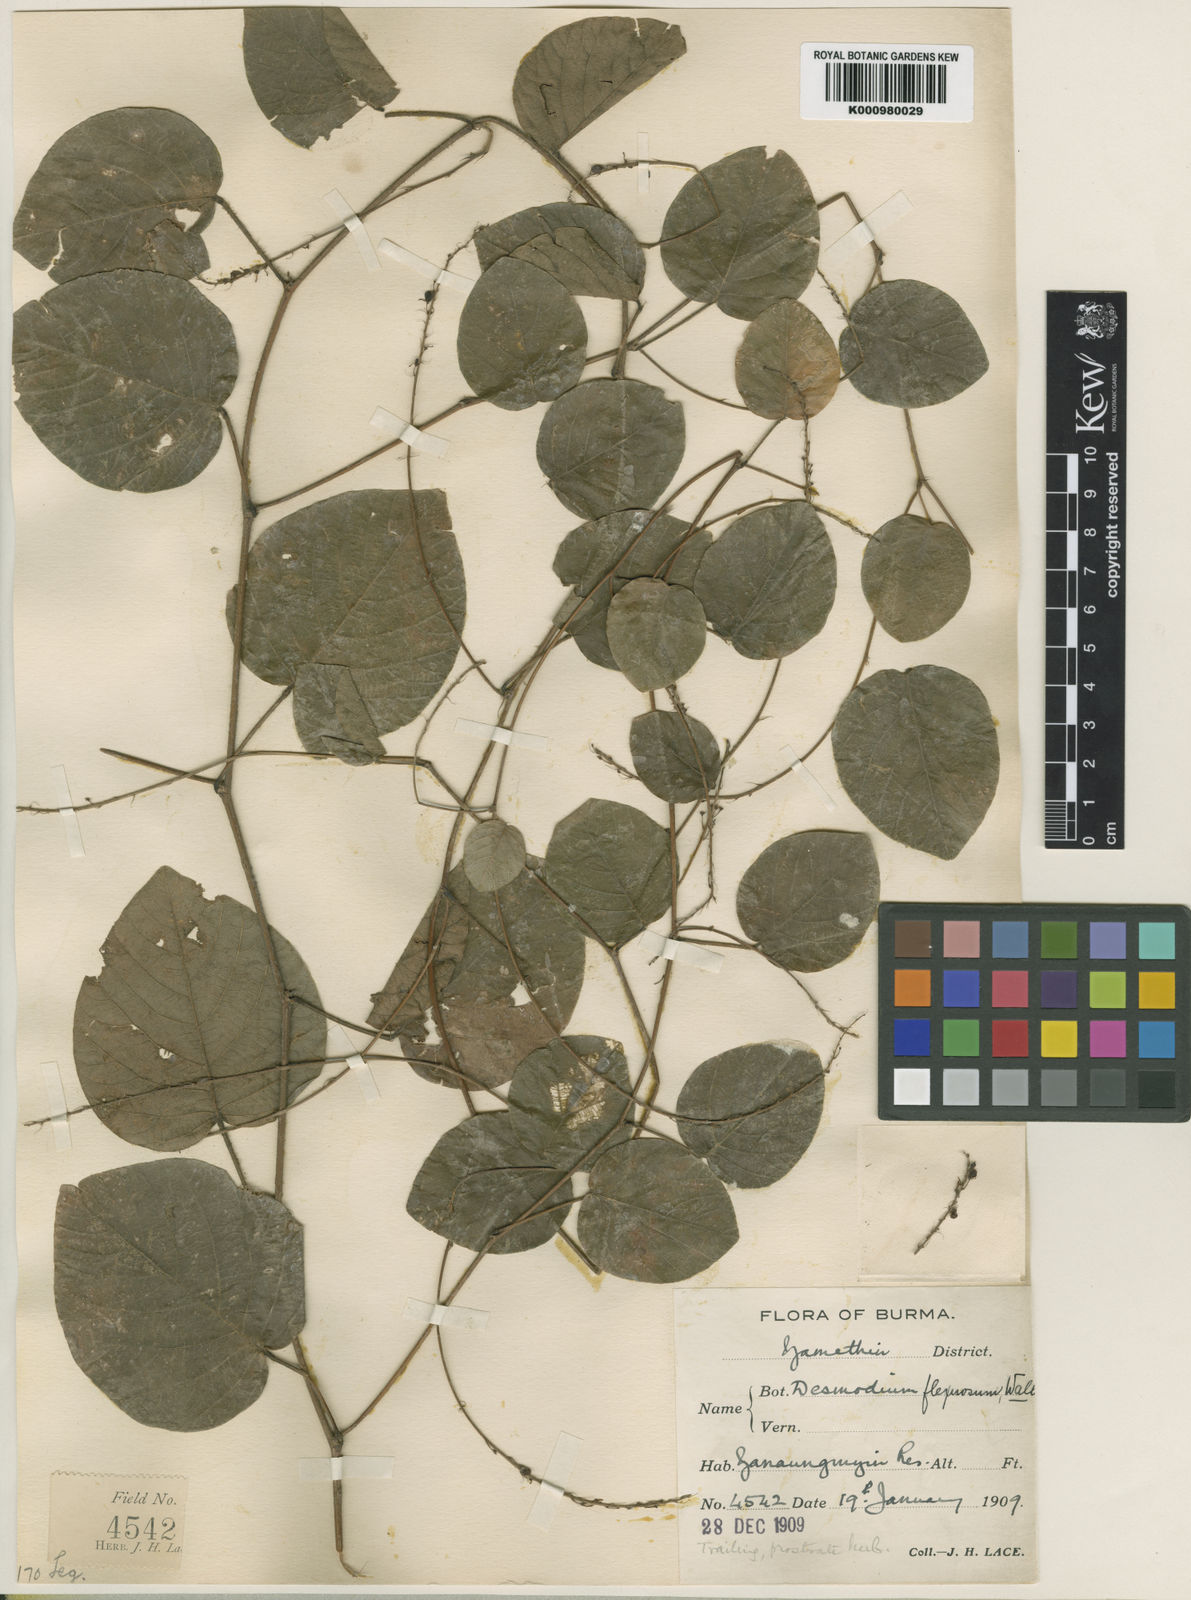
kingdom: Plantae
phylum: Tracheophyta
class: Magnoliopsida
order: Fabales
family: Fabaceae
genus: Desmodium
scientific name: Desmodium
